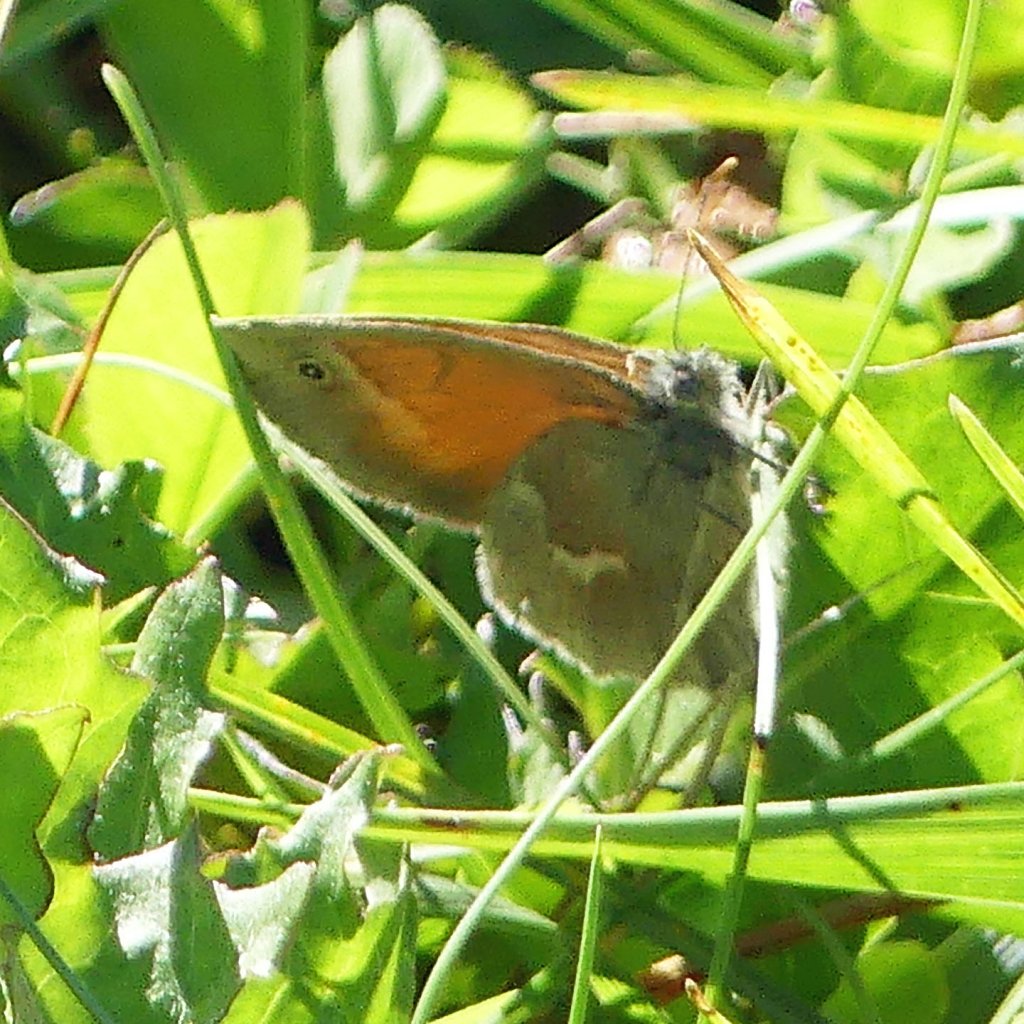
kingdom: Animalia
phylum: Arthropoda
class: Insecta
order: Lepidoptera
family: Nymphalidae
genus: Coenonympha
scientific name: Coenonympha tullia
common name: Large Heath
